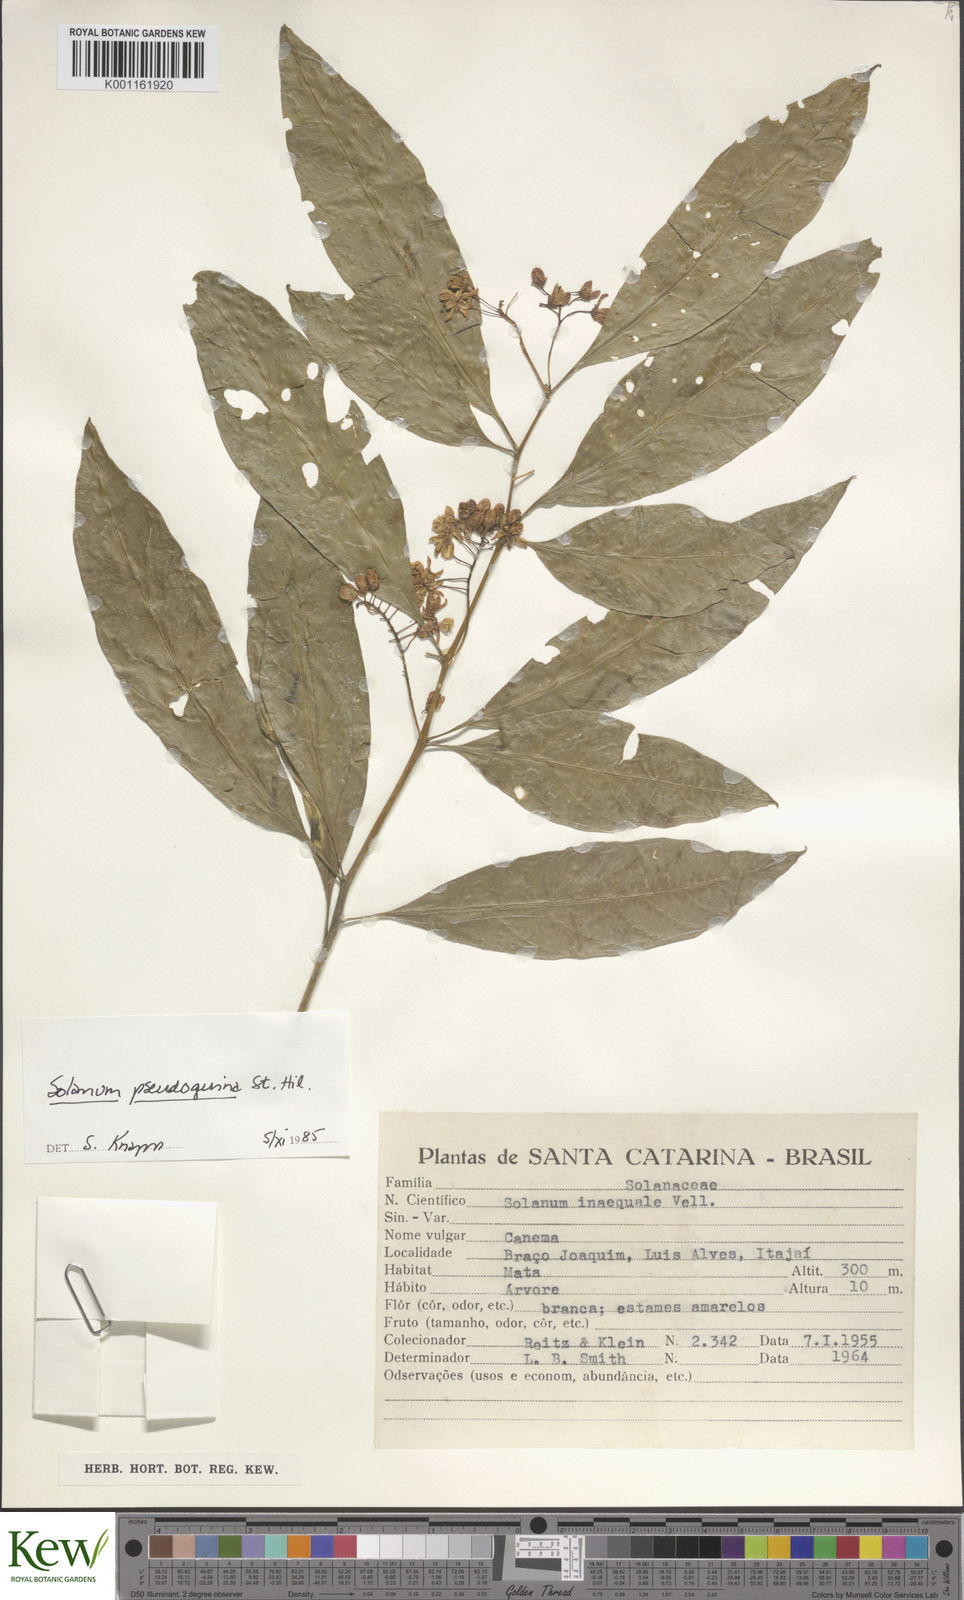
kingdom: Plantae
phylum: Tracheophyta
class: Magnoliopsida
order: Solanales
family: Solanaceae
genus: Solanum
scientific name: Solanum pseudoquina
